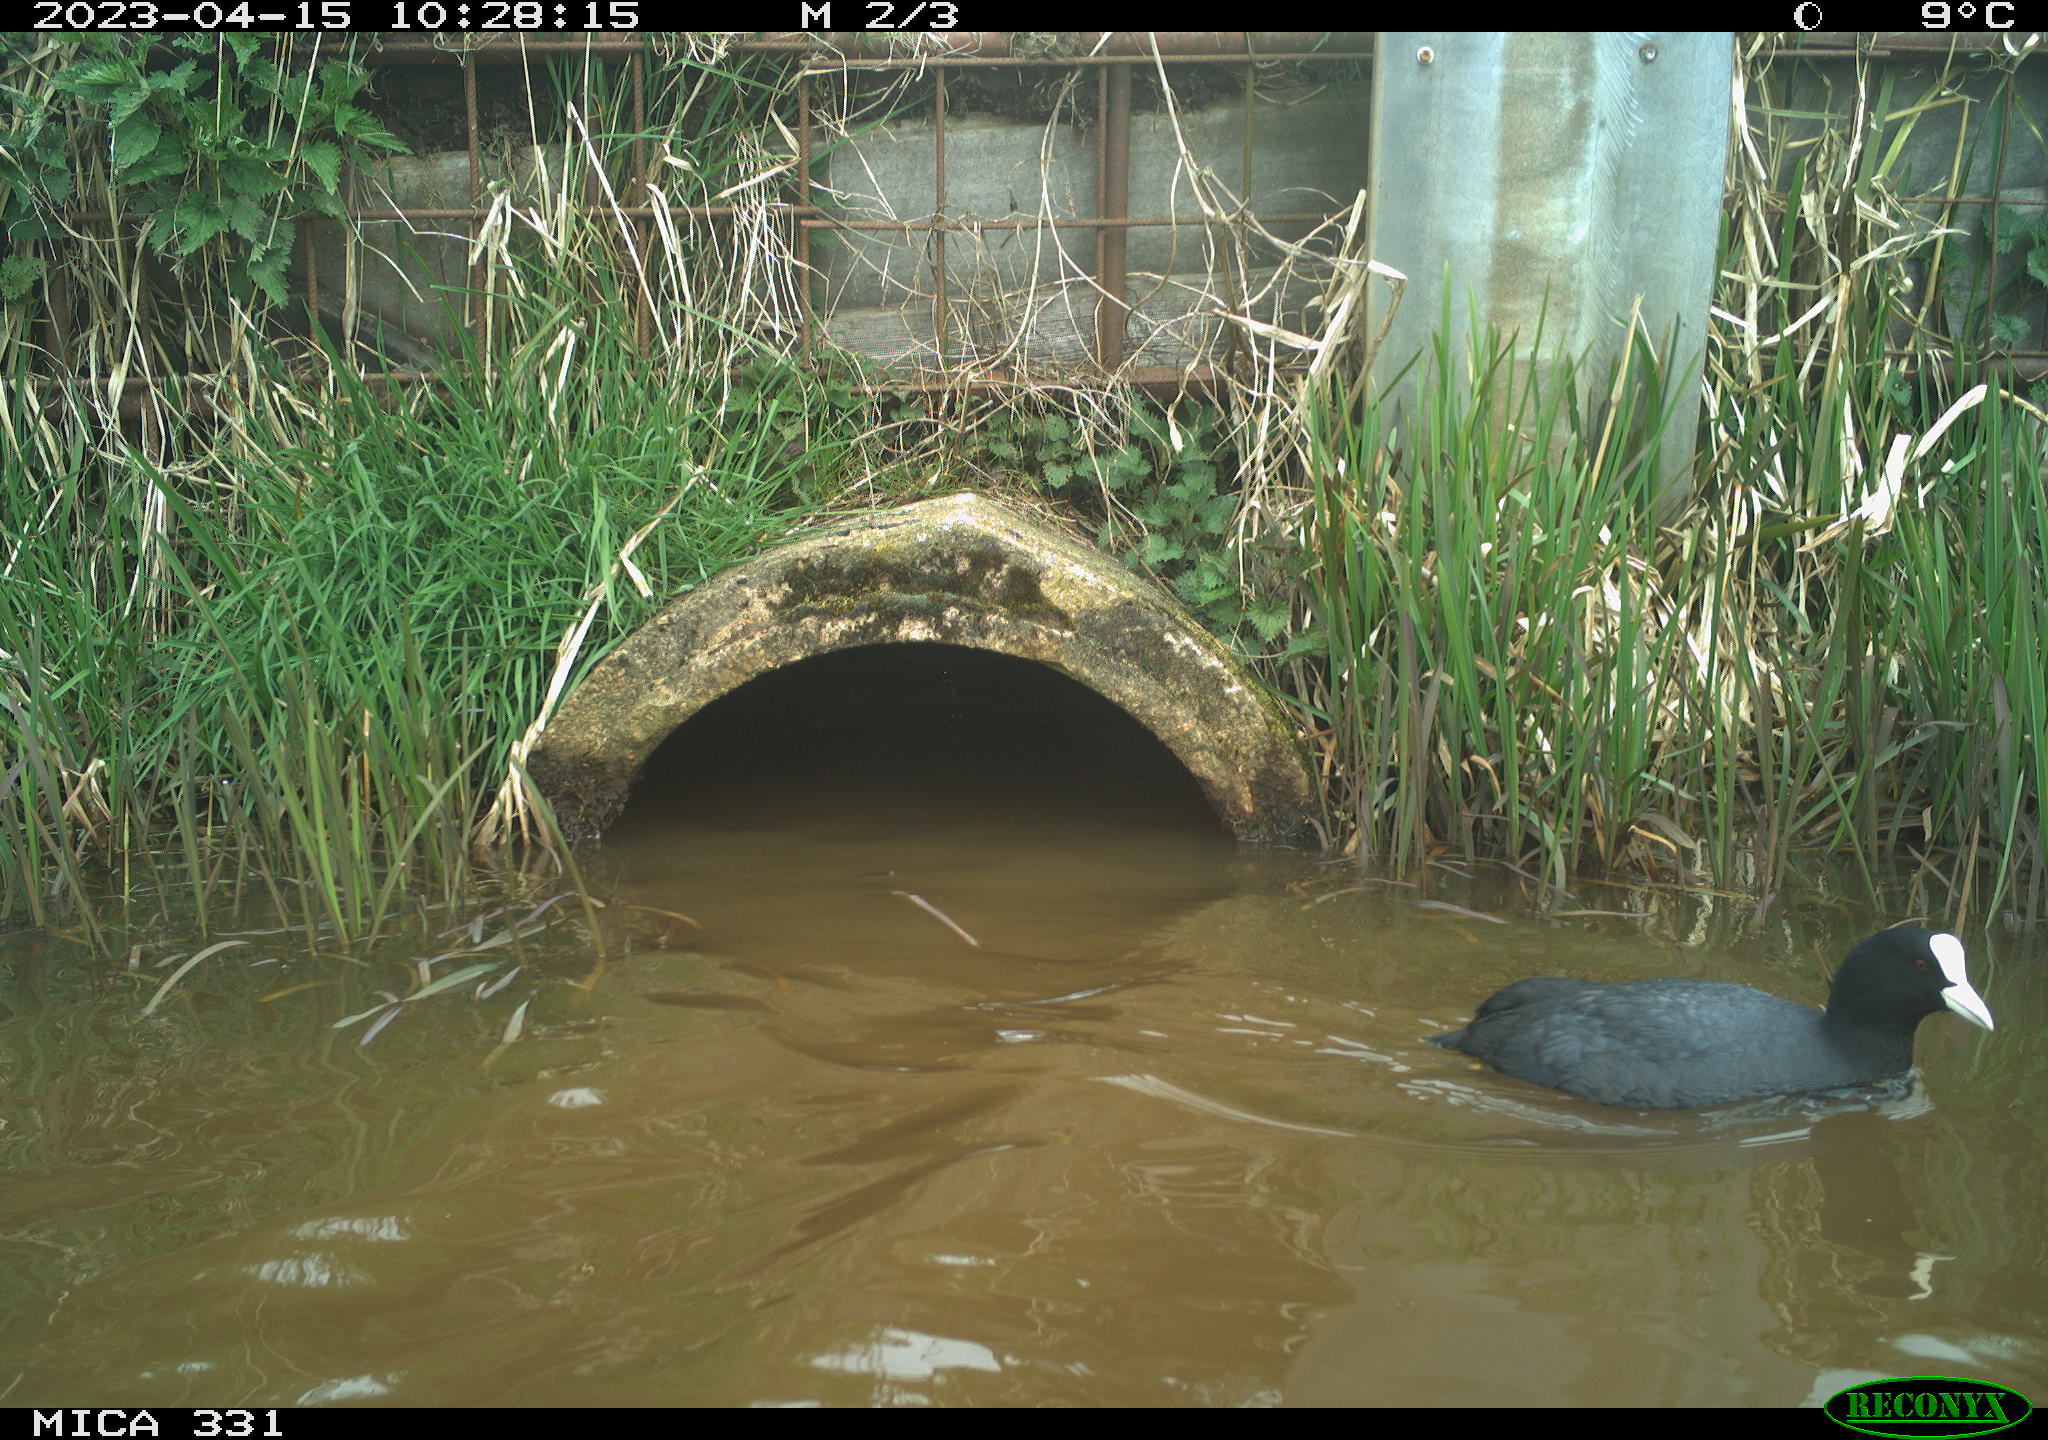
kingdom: Animalia
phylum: Chordata
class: Aves
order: Gruiformes
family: Rallidae
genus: Fulica
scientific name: Fulica atra
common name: Eurasian coot
